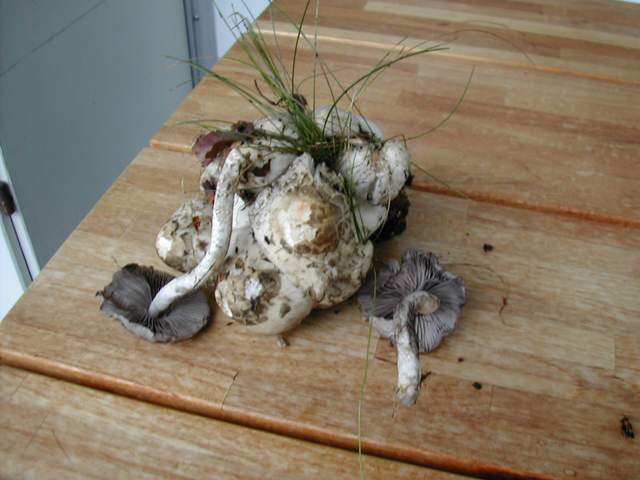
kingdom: Fungi
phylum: Basidiomycota
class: Agaricomycetes
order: Agaricales
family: Psathyrellaceae
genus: Psathyrella
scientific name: Psathyrella cotonea
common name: skællet mørkhat
